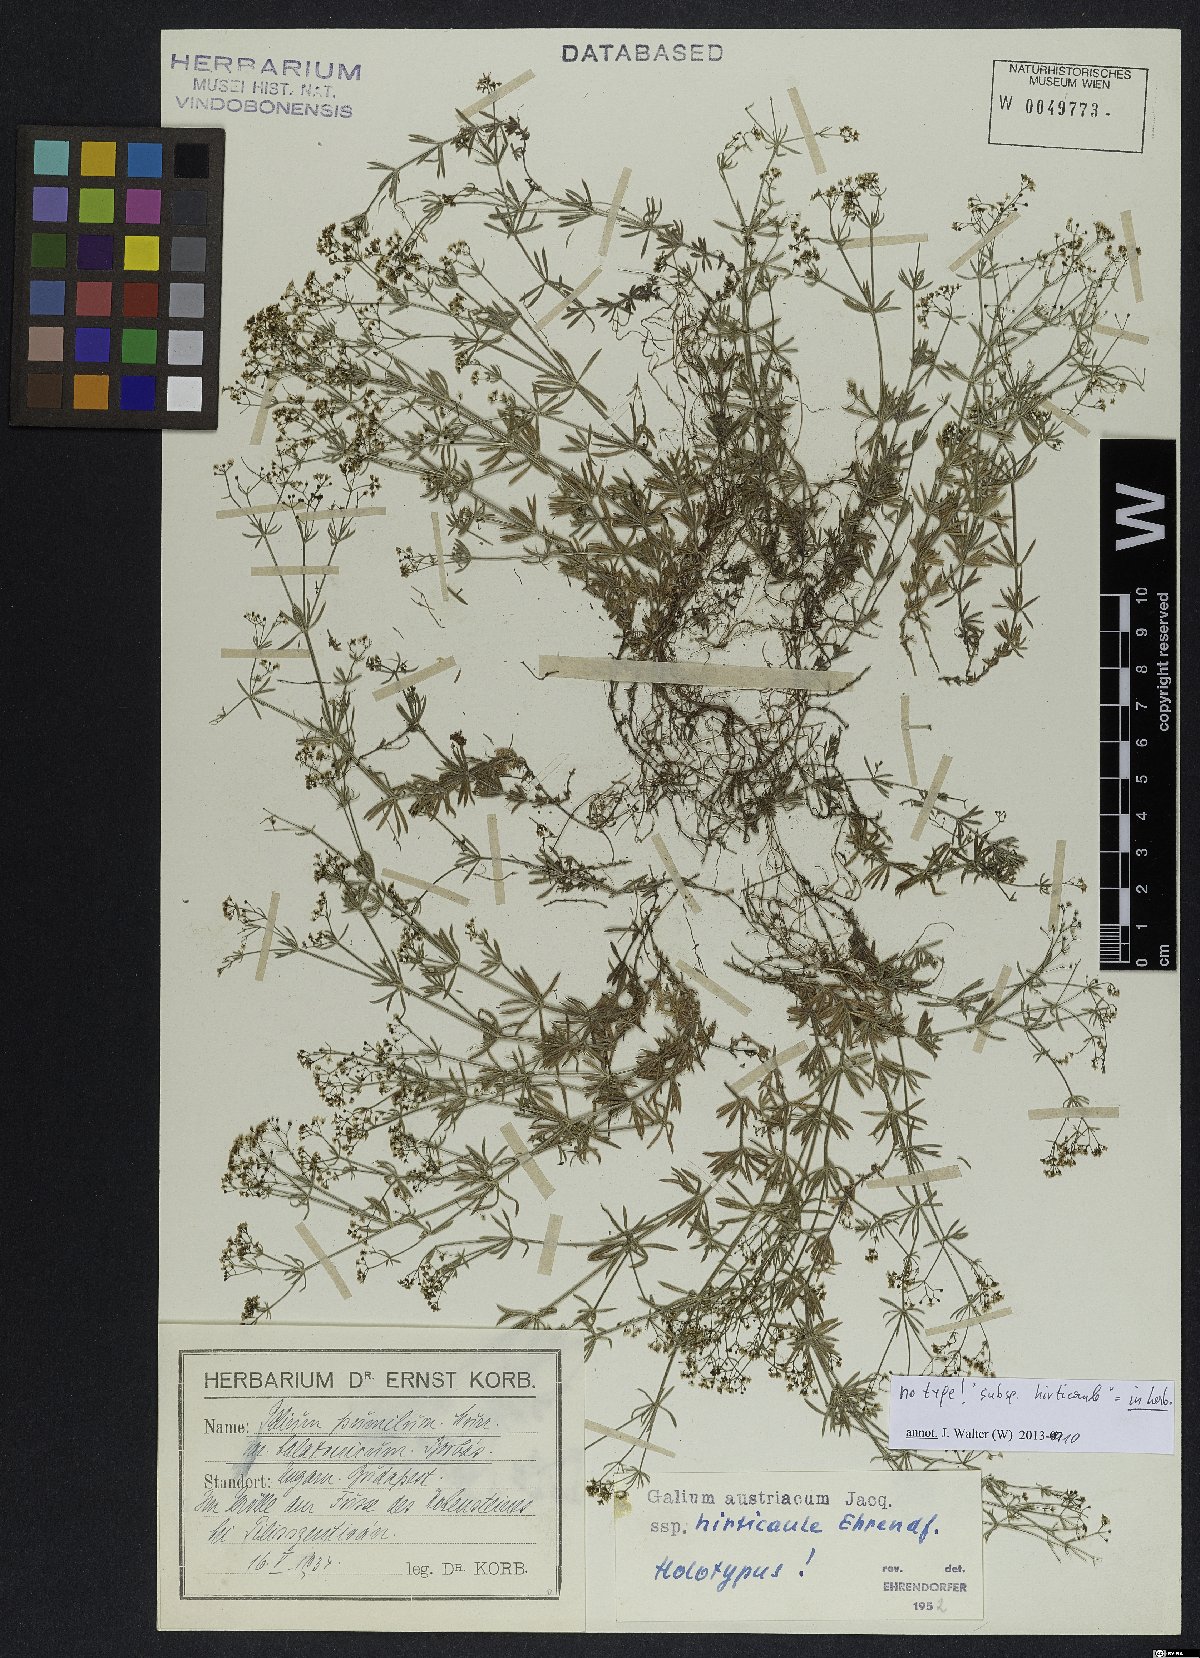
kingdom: Plantae
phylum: Tracheophyta
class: Magnoliopsida
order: Gentianales
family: Rubiaceae
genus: Galium
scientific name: Galium austriacum
